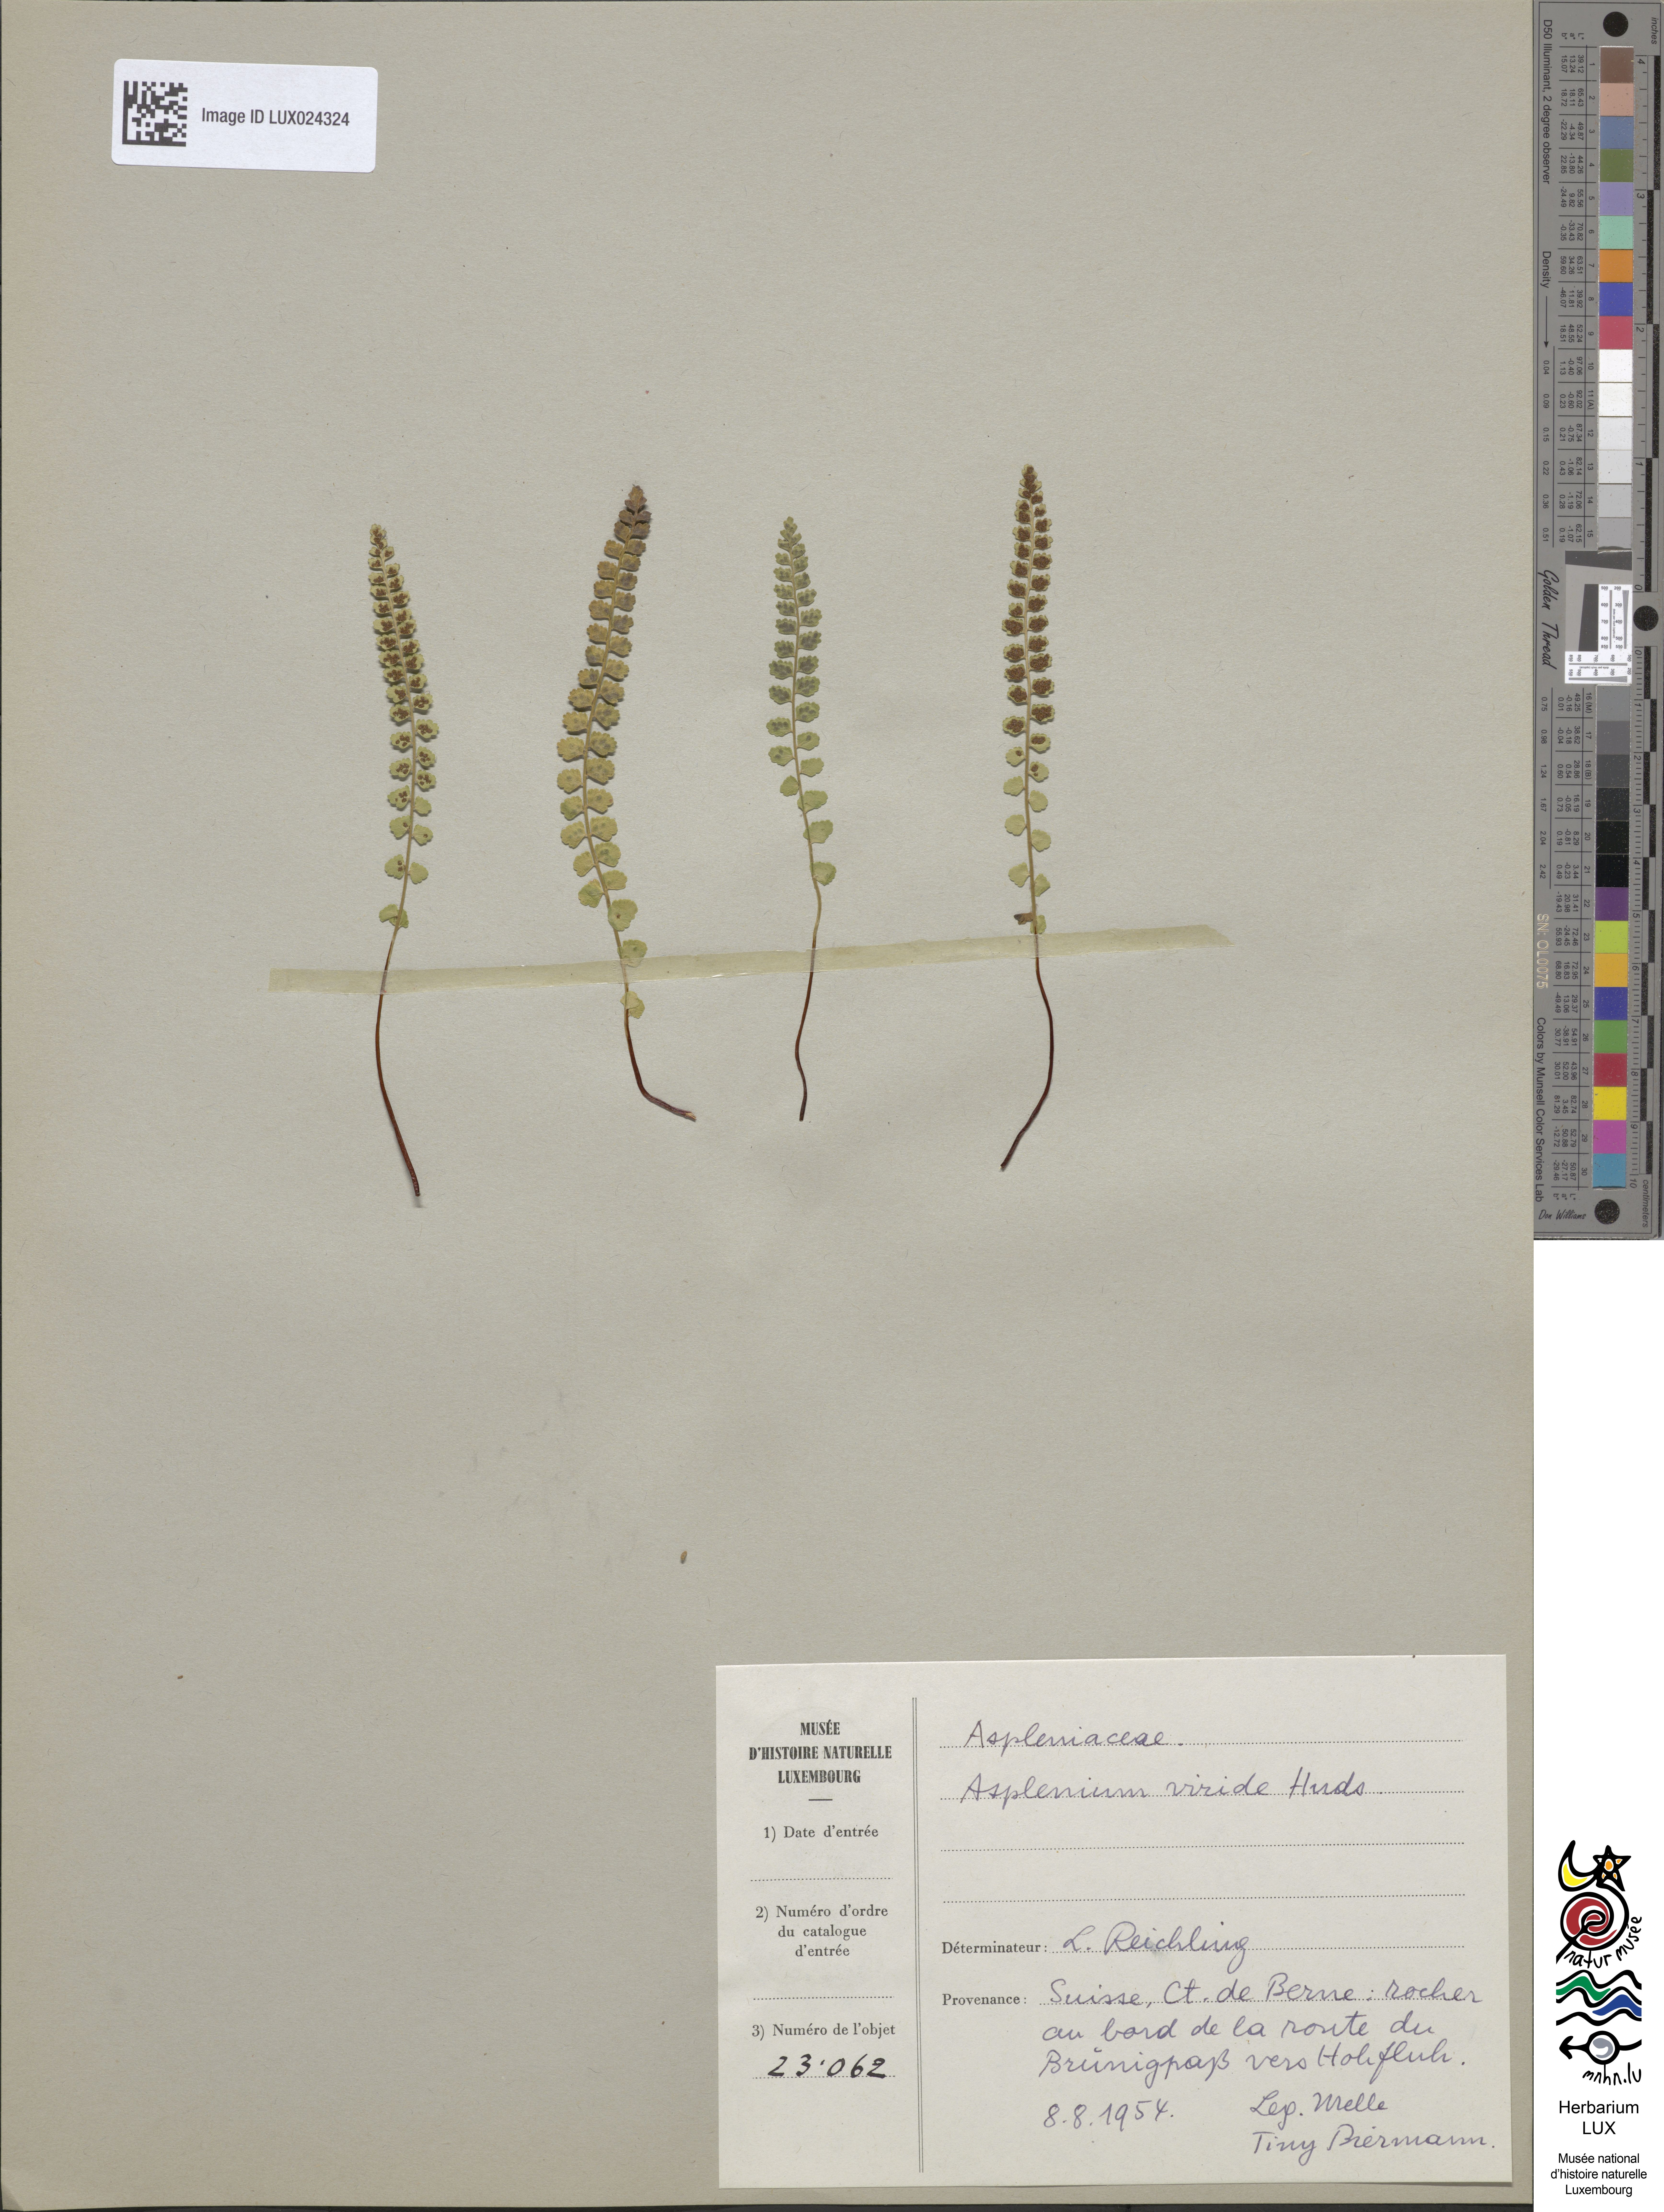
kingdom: Plantae
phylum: Tracheophyta
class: Polypodiopsida
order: Polypodiales
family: Aspleniaceae
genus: Asplenium
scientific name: Asplenium viride
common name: Green spleenwort
